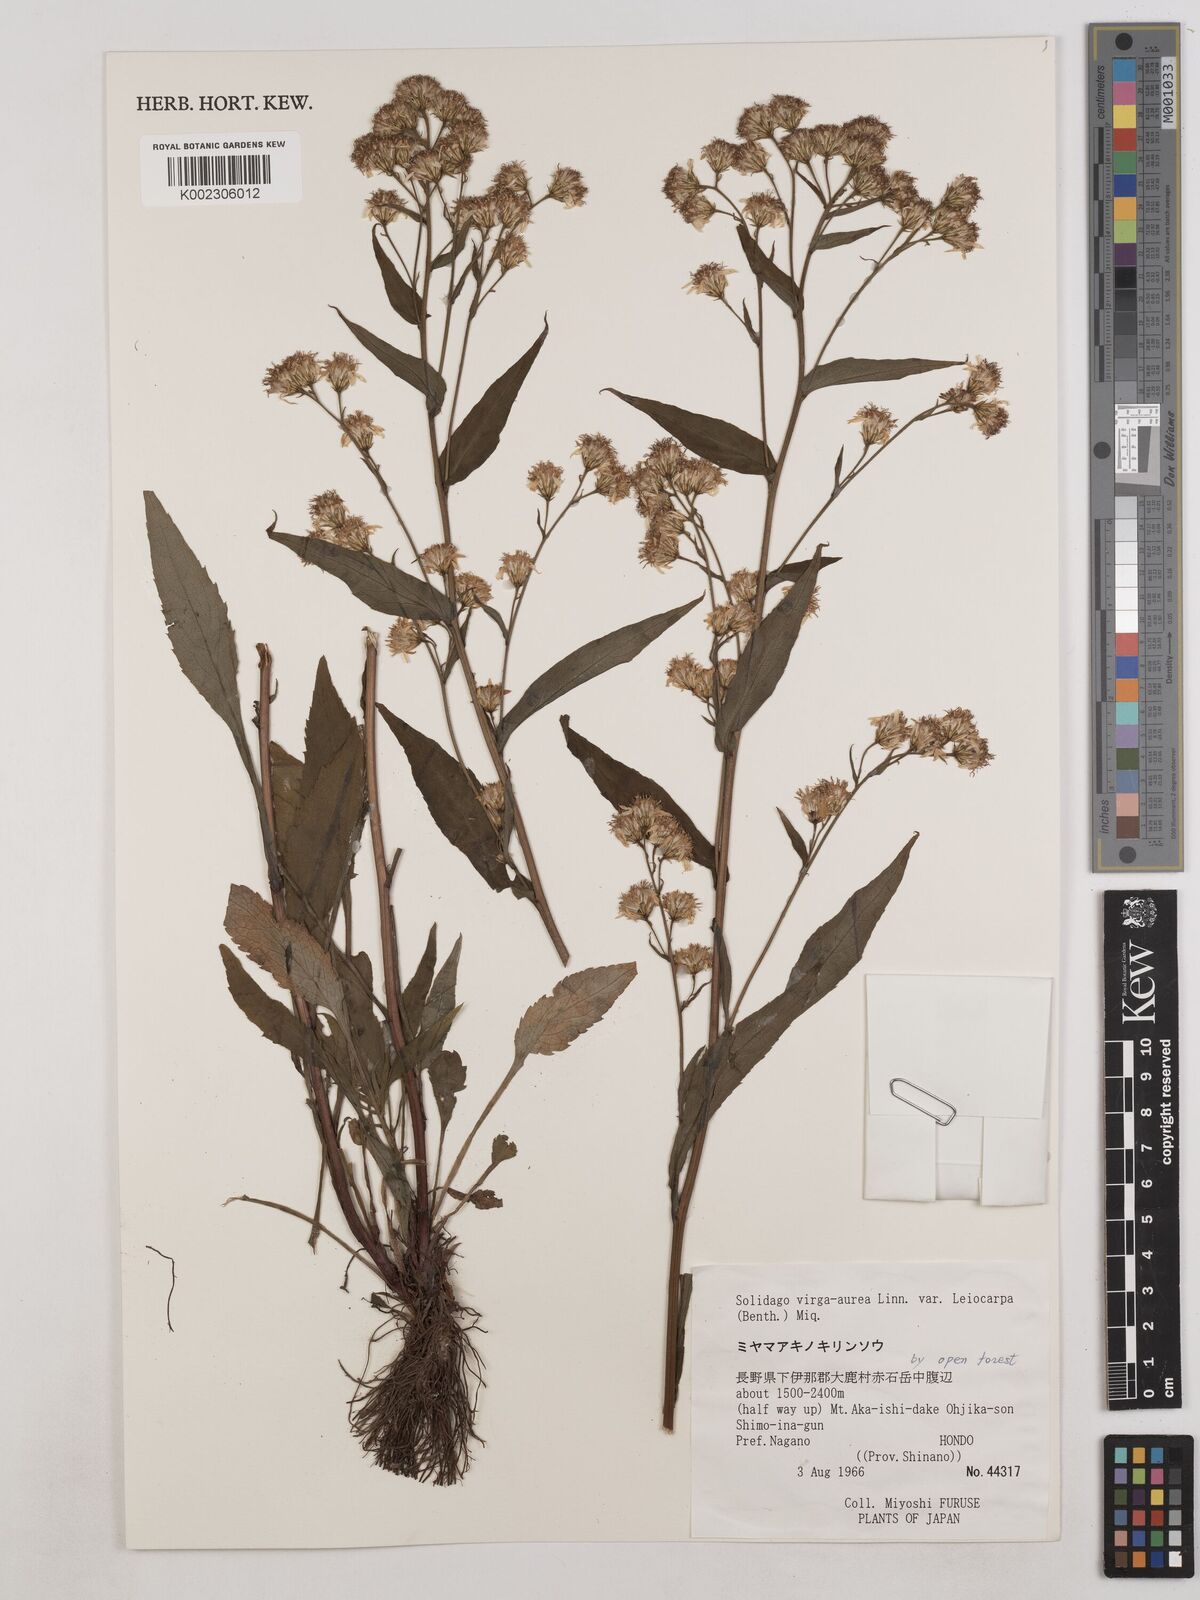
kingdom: Plantae
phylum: Tracheophyta
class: Magnoliopsida
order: Asterales
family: Asteraceae
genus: Solidago
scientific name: Solidago decurrens
